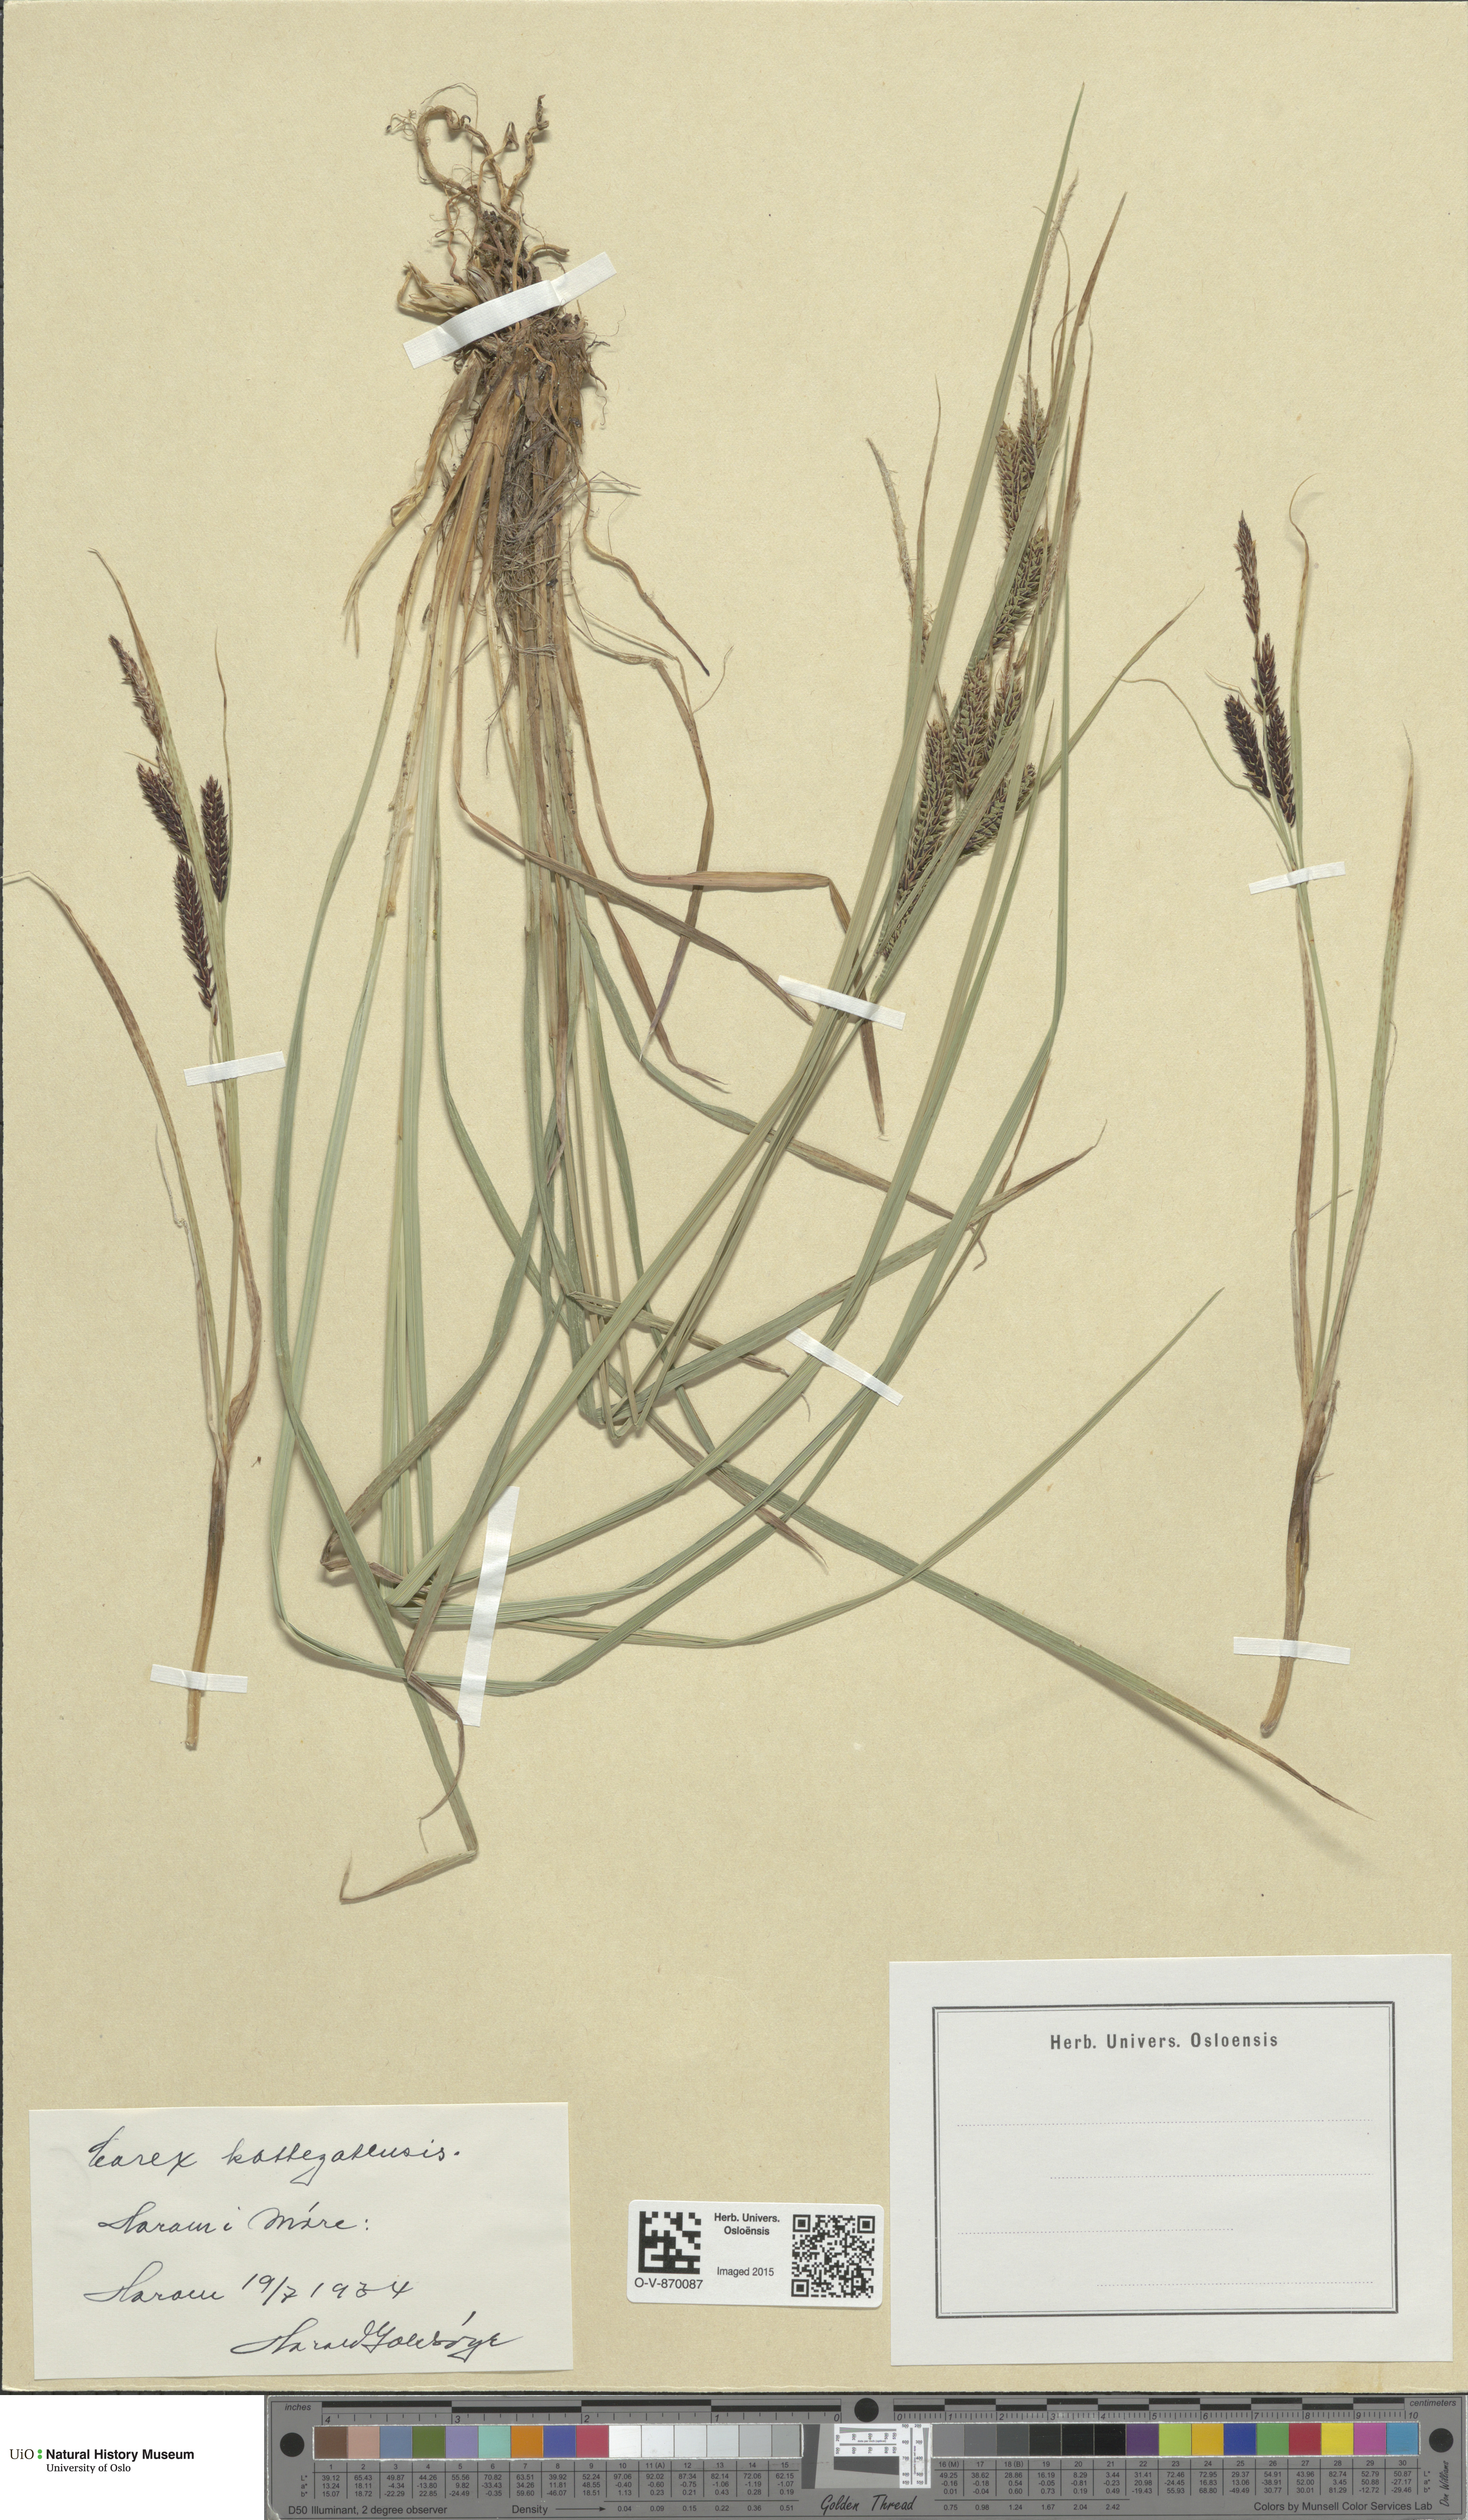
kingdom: Plantae
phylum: Tracheophyta
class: Liliopsida
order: Poales
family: Cyperaceae
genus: Carex
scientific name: Carex vacillans
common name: Sedge
